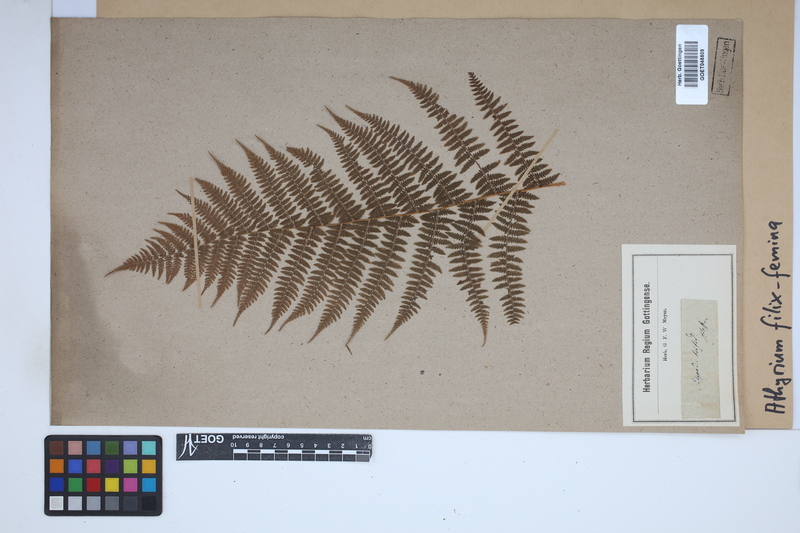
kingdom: Plantae
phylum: Tracheophyta
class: Polypodiopsida
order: Polypodiales
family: Athyriaceae
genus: Athyrium
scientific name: Athyrium filix-femina
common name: Lady fern
